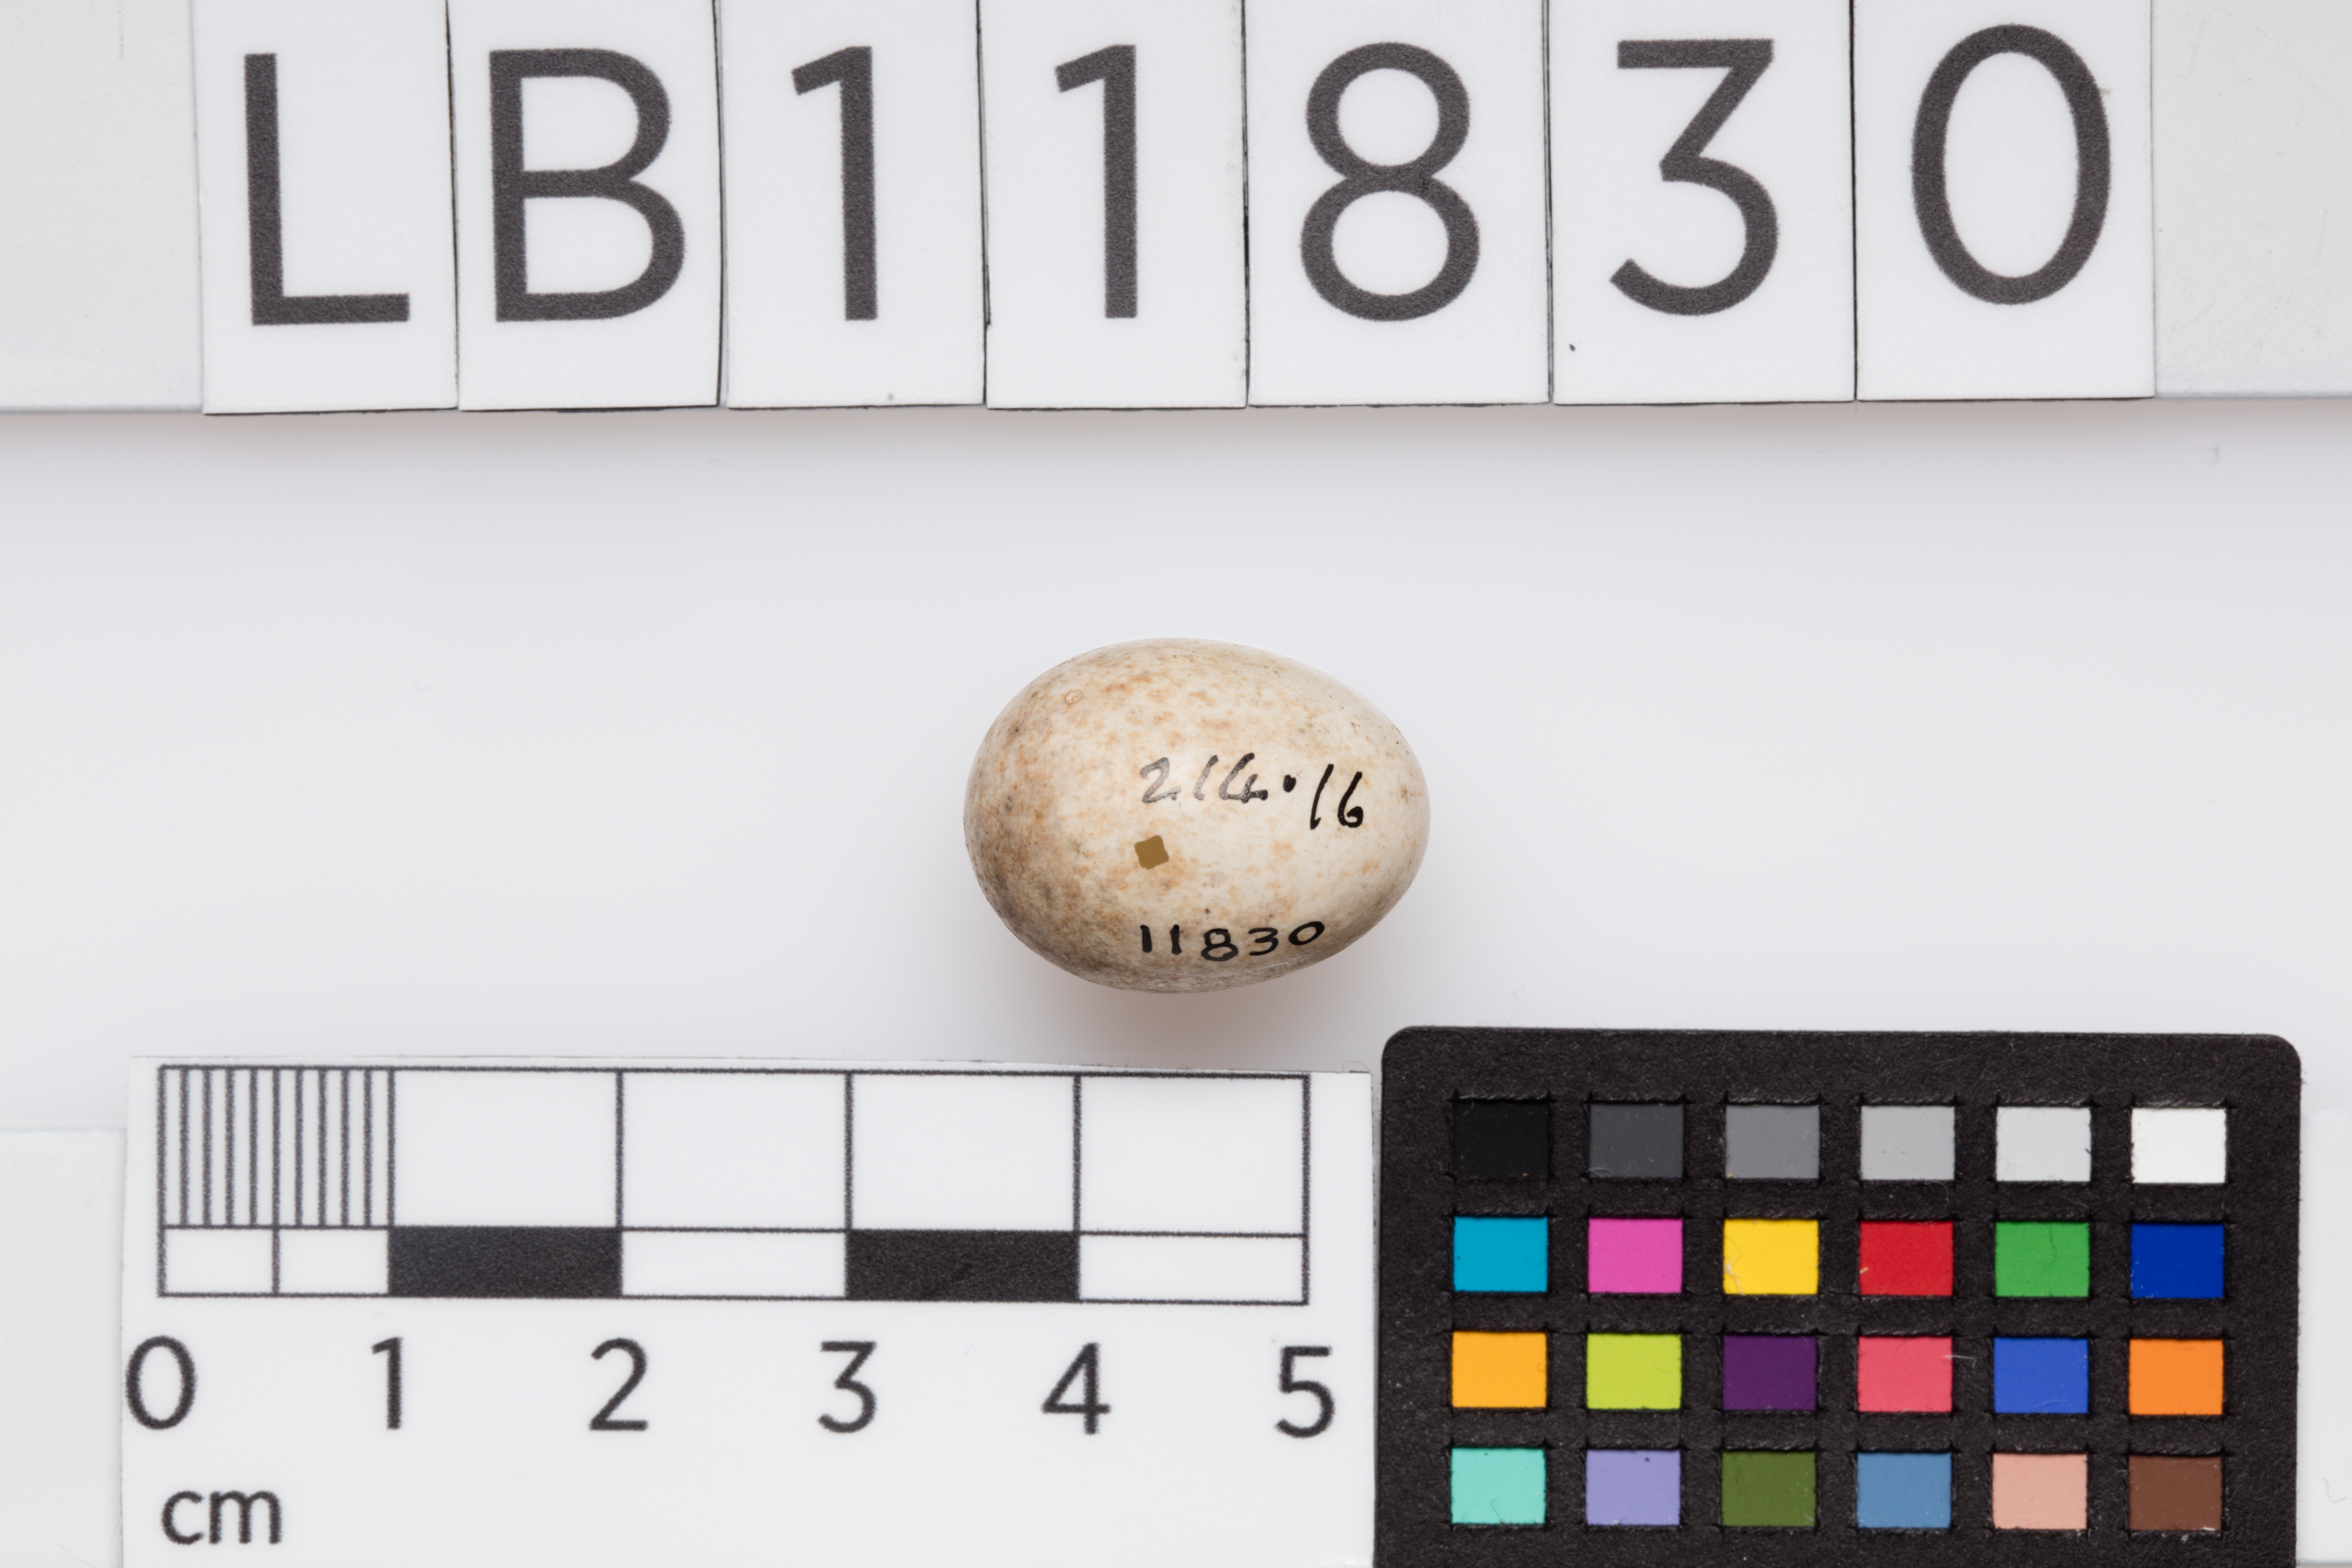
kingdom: Animalia
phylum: Chordata
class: Aves
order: Passeriformes
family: Muscicapidae
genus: Erithacus
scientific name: Erithacus rubecula
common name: European robin
